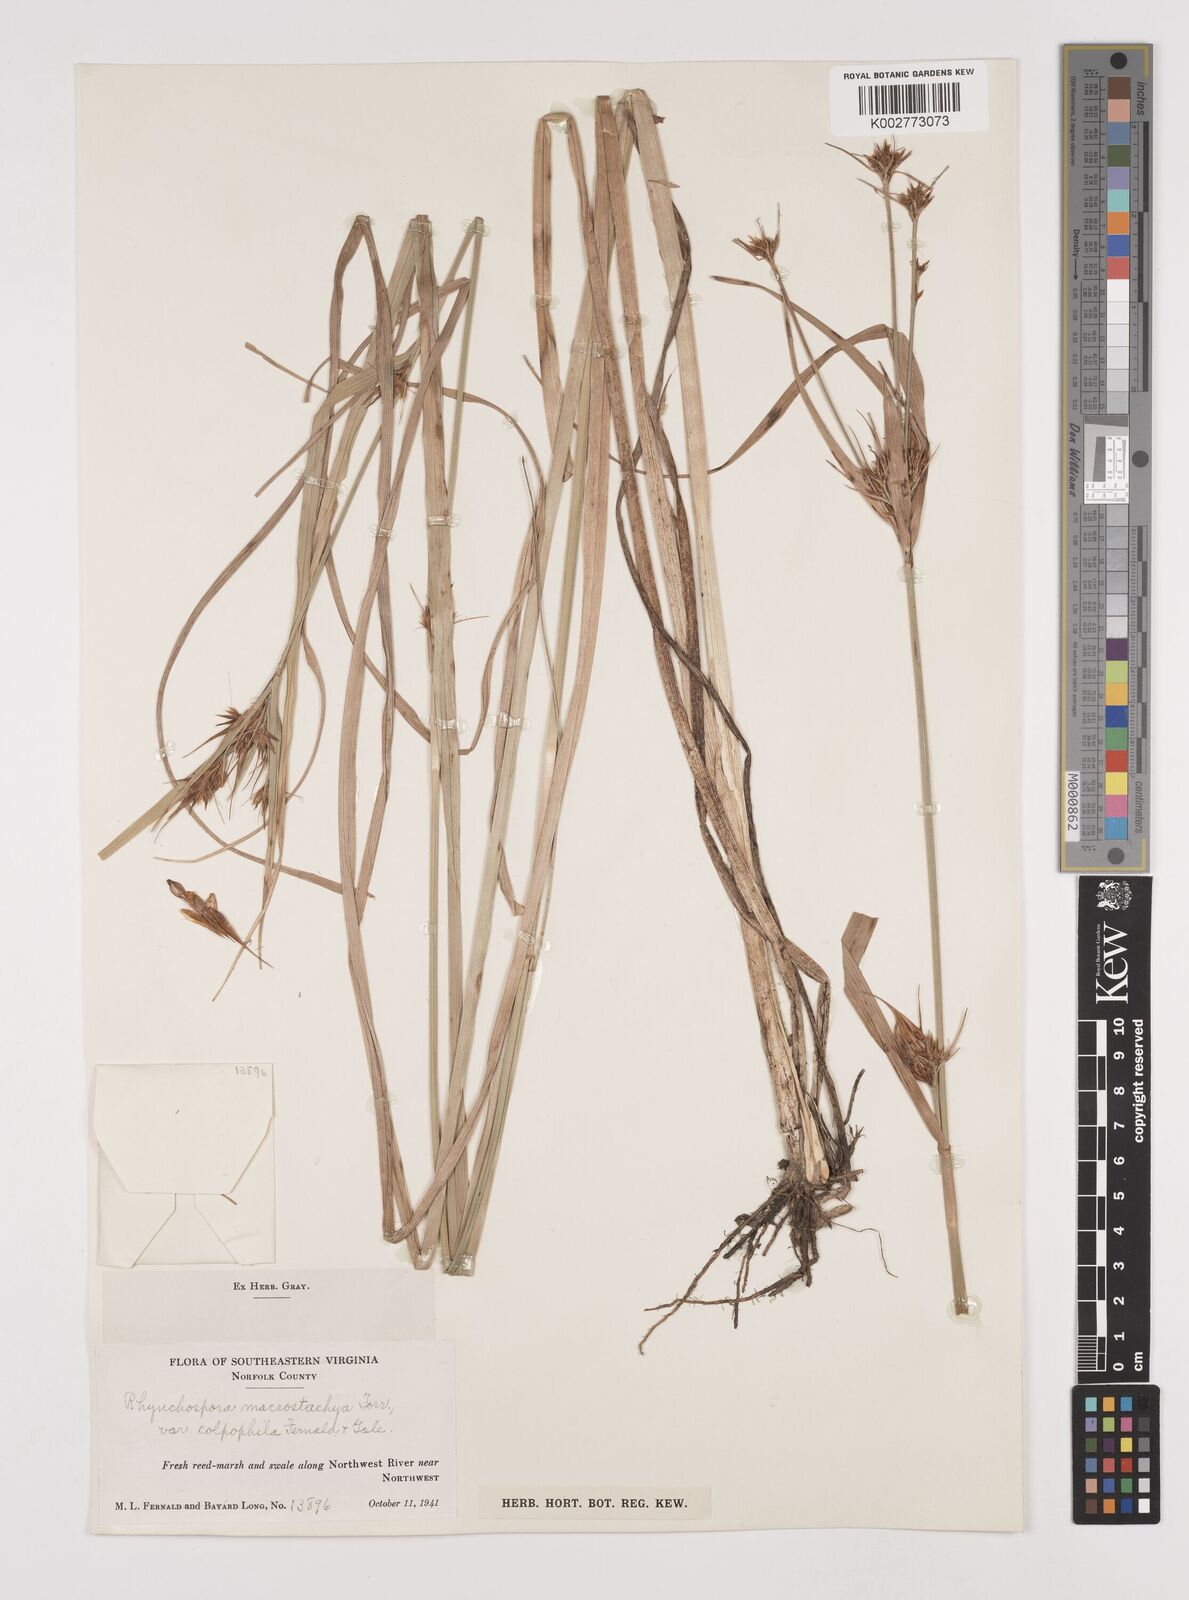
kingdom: Plantae
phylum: Tracheophyta
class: Liliopsida
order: Poales
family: Cyperaceae
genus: Rhynchospora
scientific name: Rhynchospora macrostachya
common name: Tall beakrush
